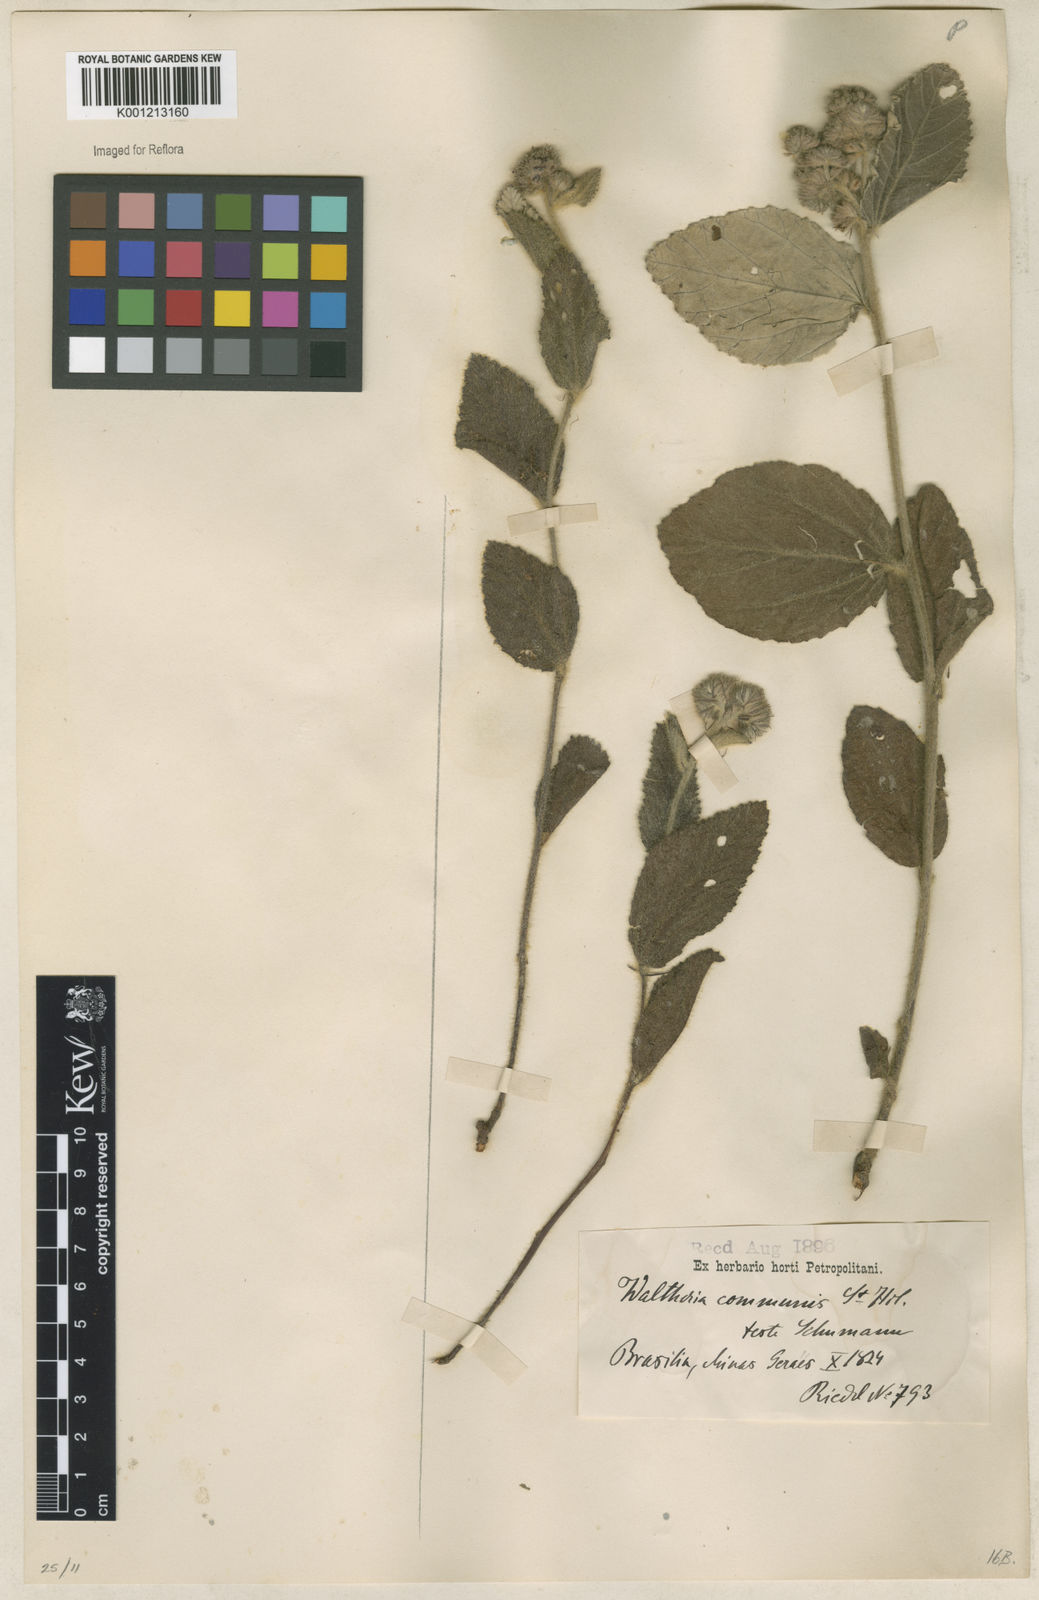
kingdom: Plantae
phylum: Tracheophyta
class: Magnoliopsida
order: Malvales
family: Malvaceae
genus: Waltheria
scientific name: Waltheria communis
